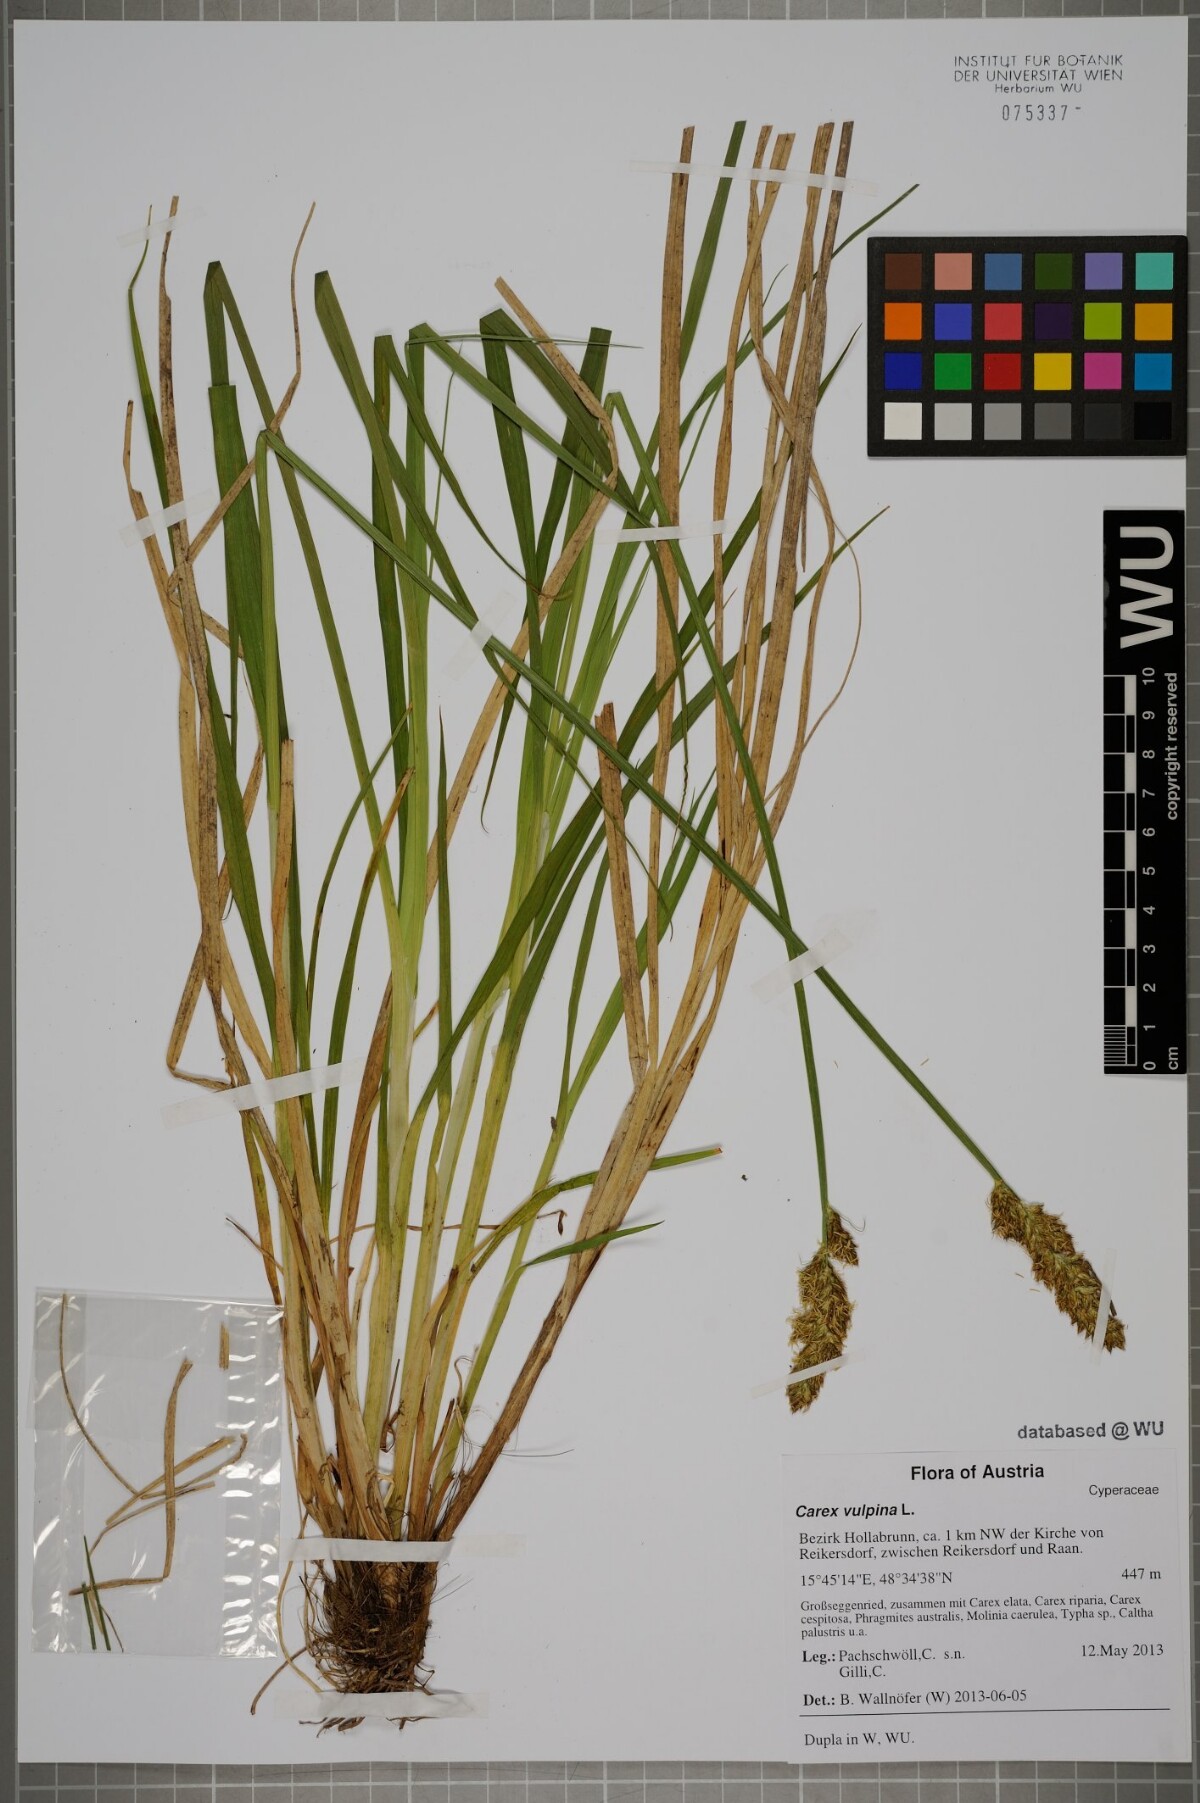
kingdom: Plantae
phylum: Tracheophyta
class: Liliopsida
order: Poales
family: Cyperaceae
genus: Carex
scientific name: Carex vulpina
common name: True fox-sedge
